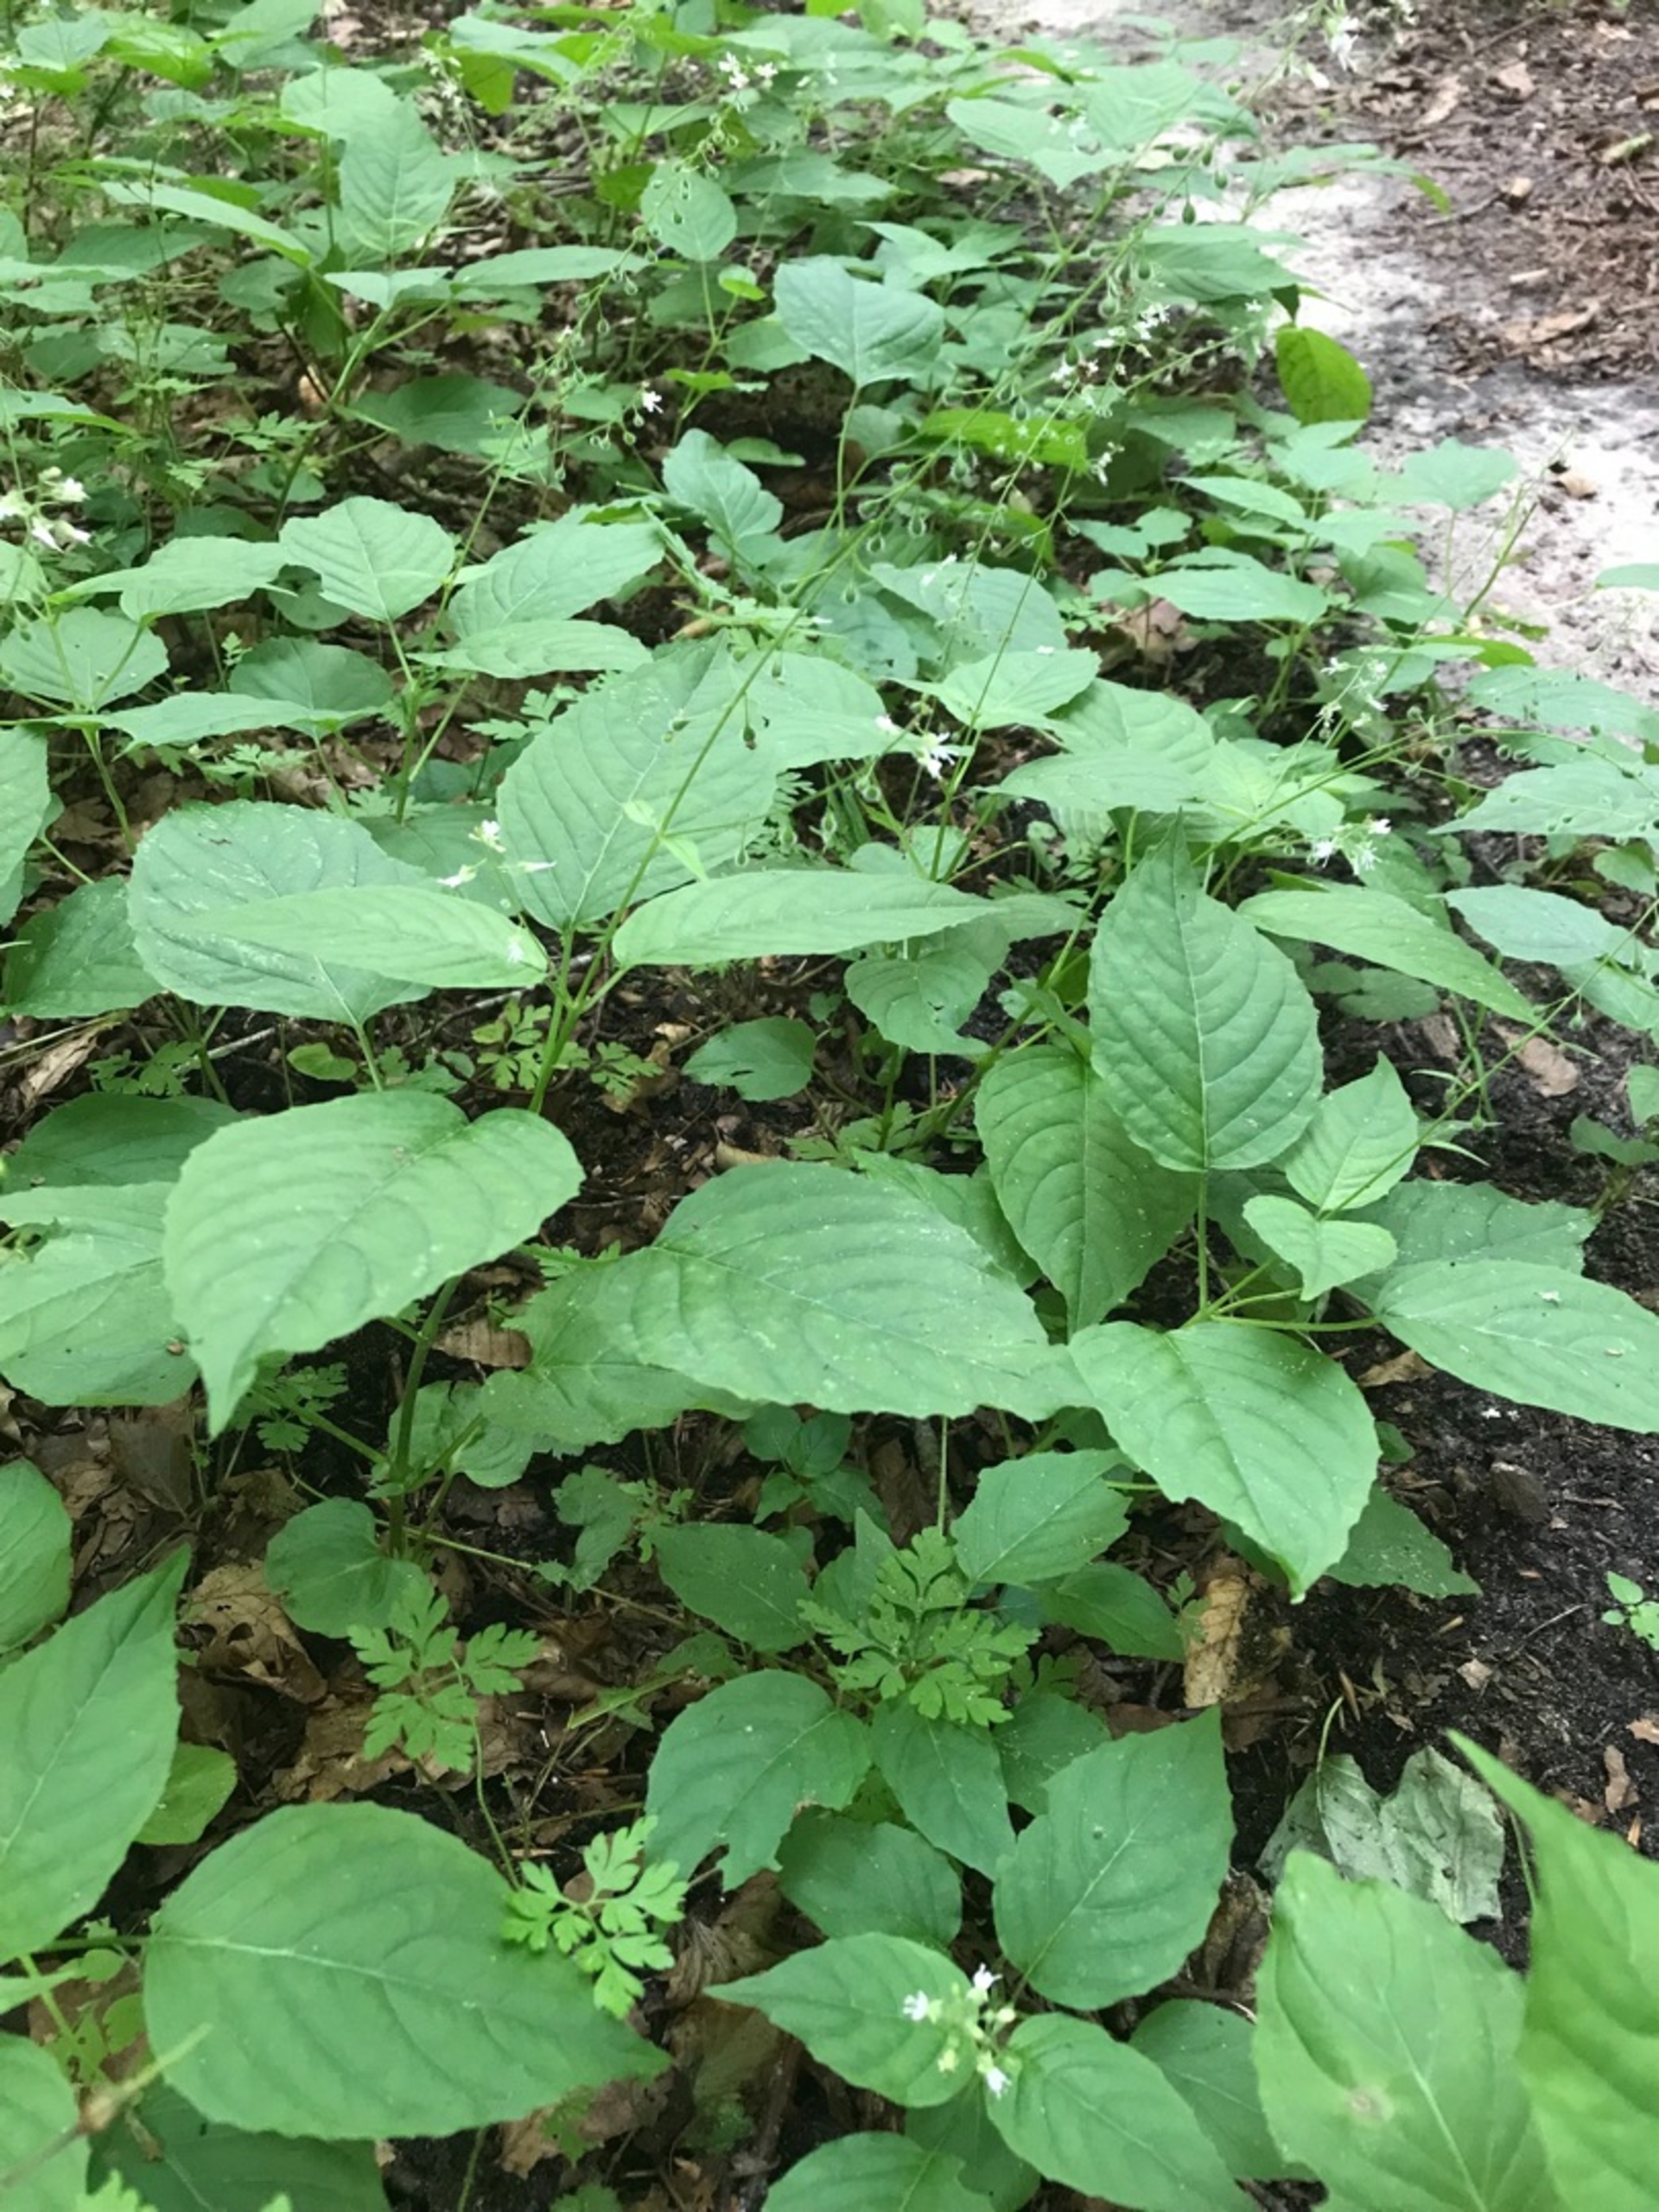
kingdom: Plantae
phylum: Tracheophyta
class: Magnoliopsida
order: Myrtales
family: Onagraceae
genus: Circaea
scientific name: Circaea lutetiana
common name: Dunet steffensurt
